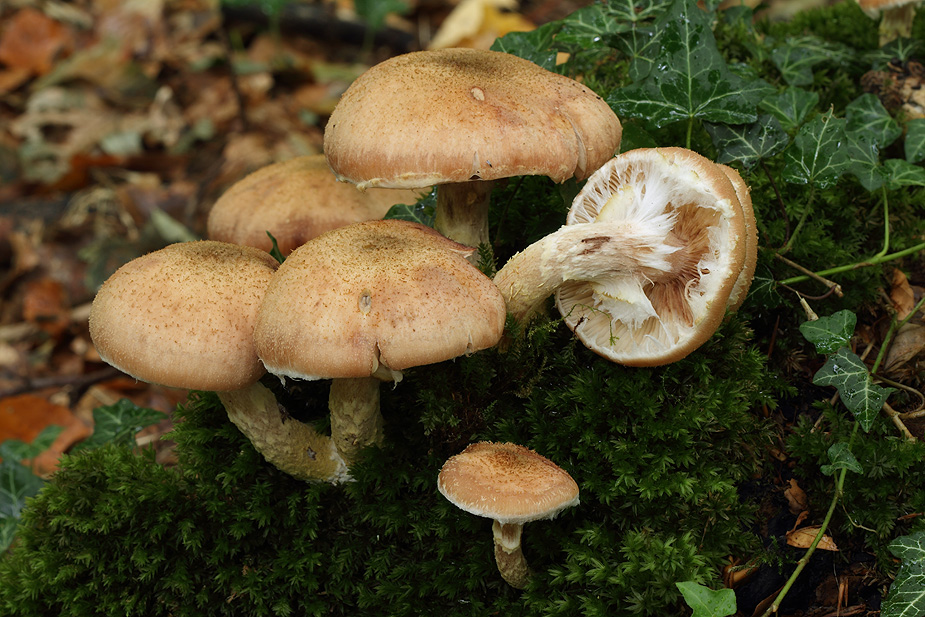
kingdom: Fungi
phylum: Basidiomycota
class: Agaricomycetes
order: Agaricales
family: Physalacriaceae
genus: Armillaria
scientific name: Armillaria lutea
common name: køllestokket honningsvamp
